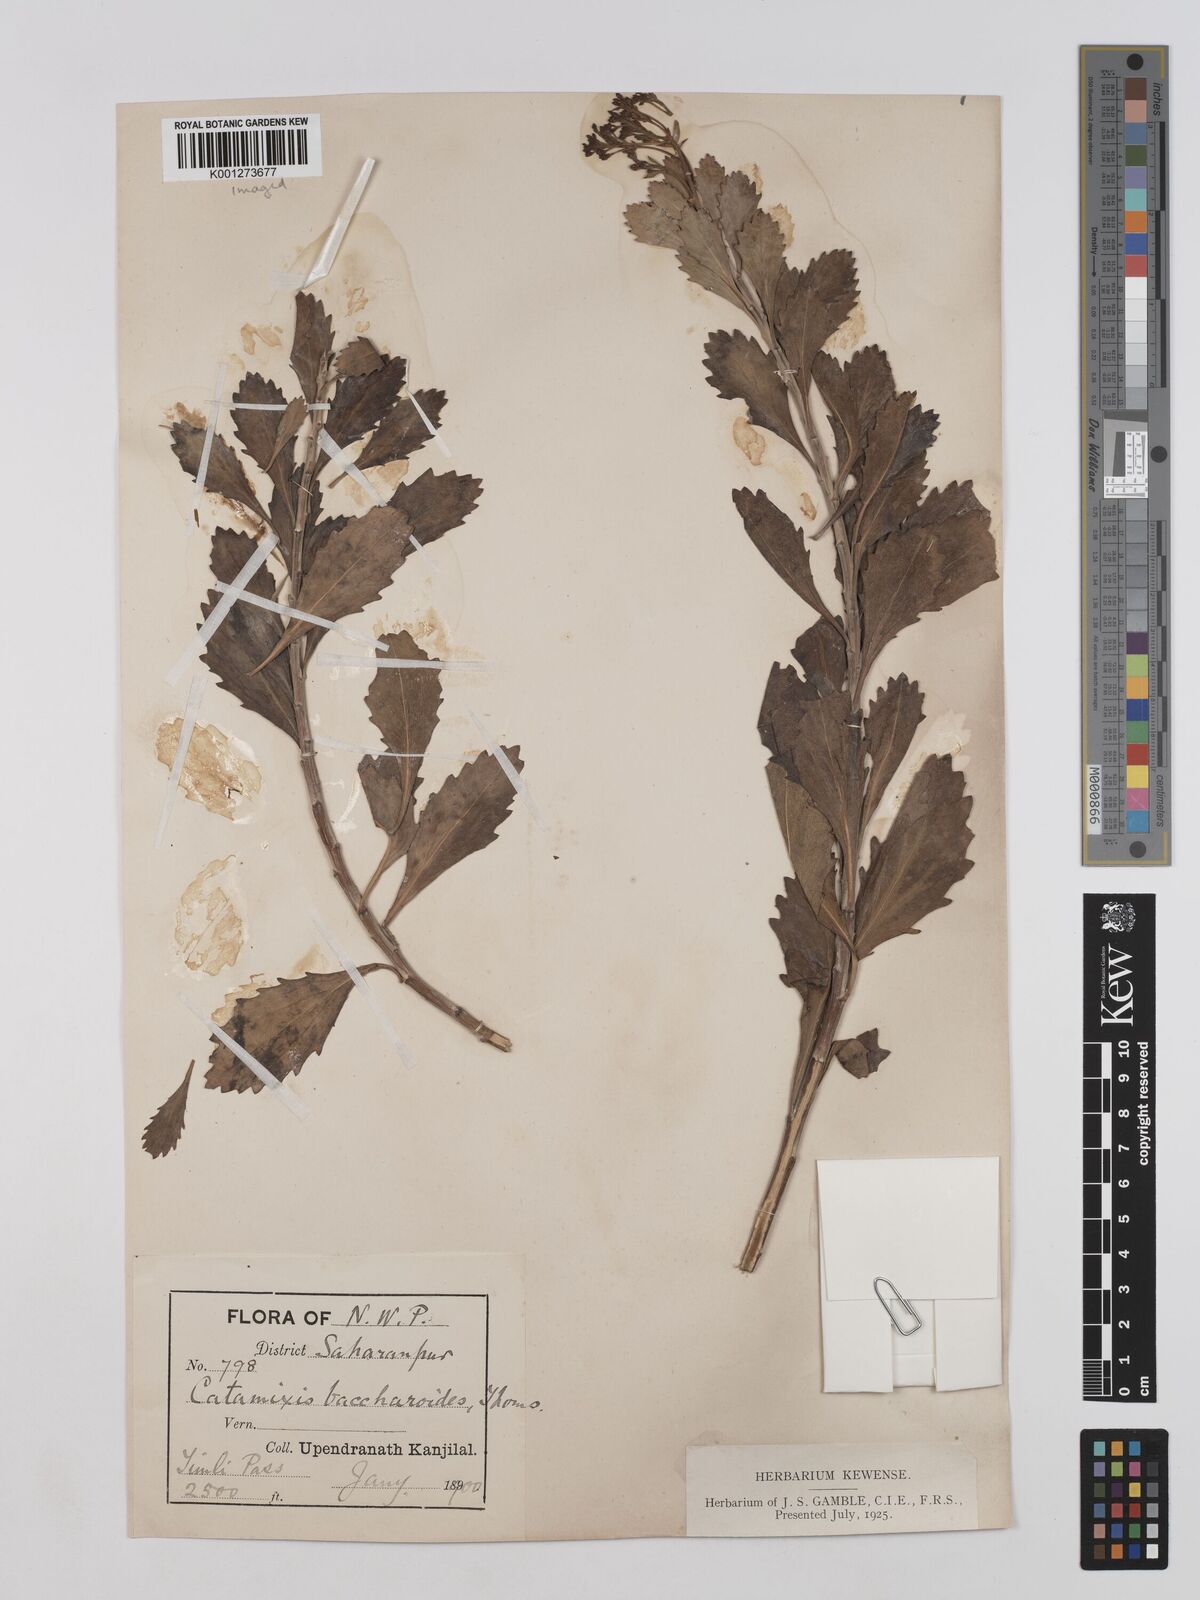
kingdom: Plantae
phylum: Tracheophyta
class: Magnoliopsida
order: Asterales
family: Asteraceae
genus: Catamixis
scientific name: Catamixis baccharoides
